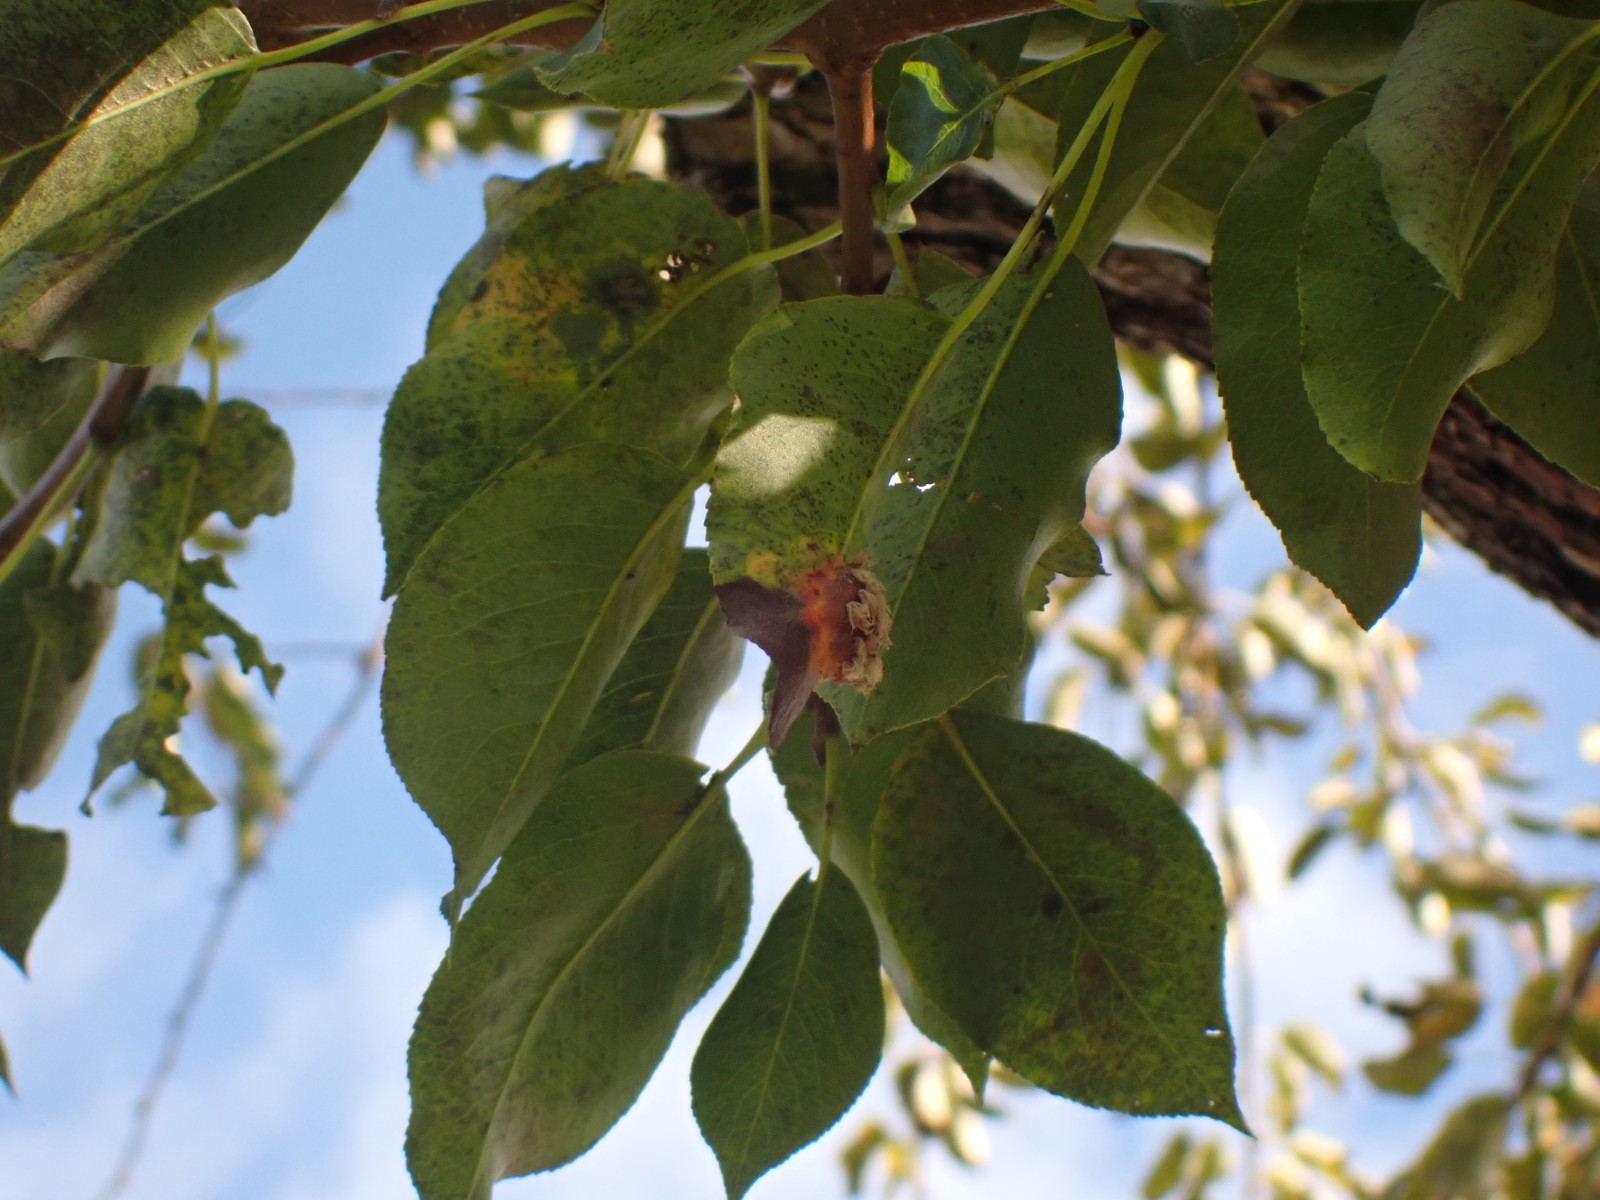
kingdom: Fungi
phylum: Basidiomycota
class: Pucciniomycetes
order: Pucciniales
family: Gymnosporangiaceae
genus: Gymnosporangium
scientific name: Gymnosporangium sabinae
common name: pæregitter-bævrerust
